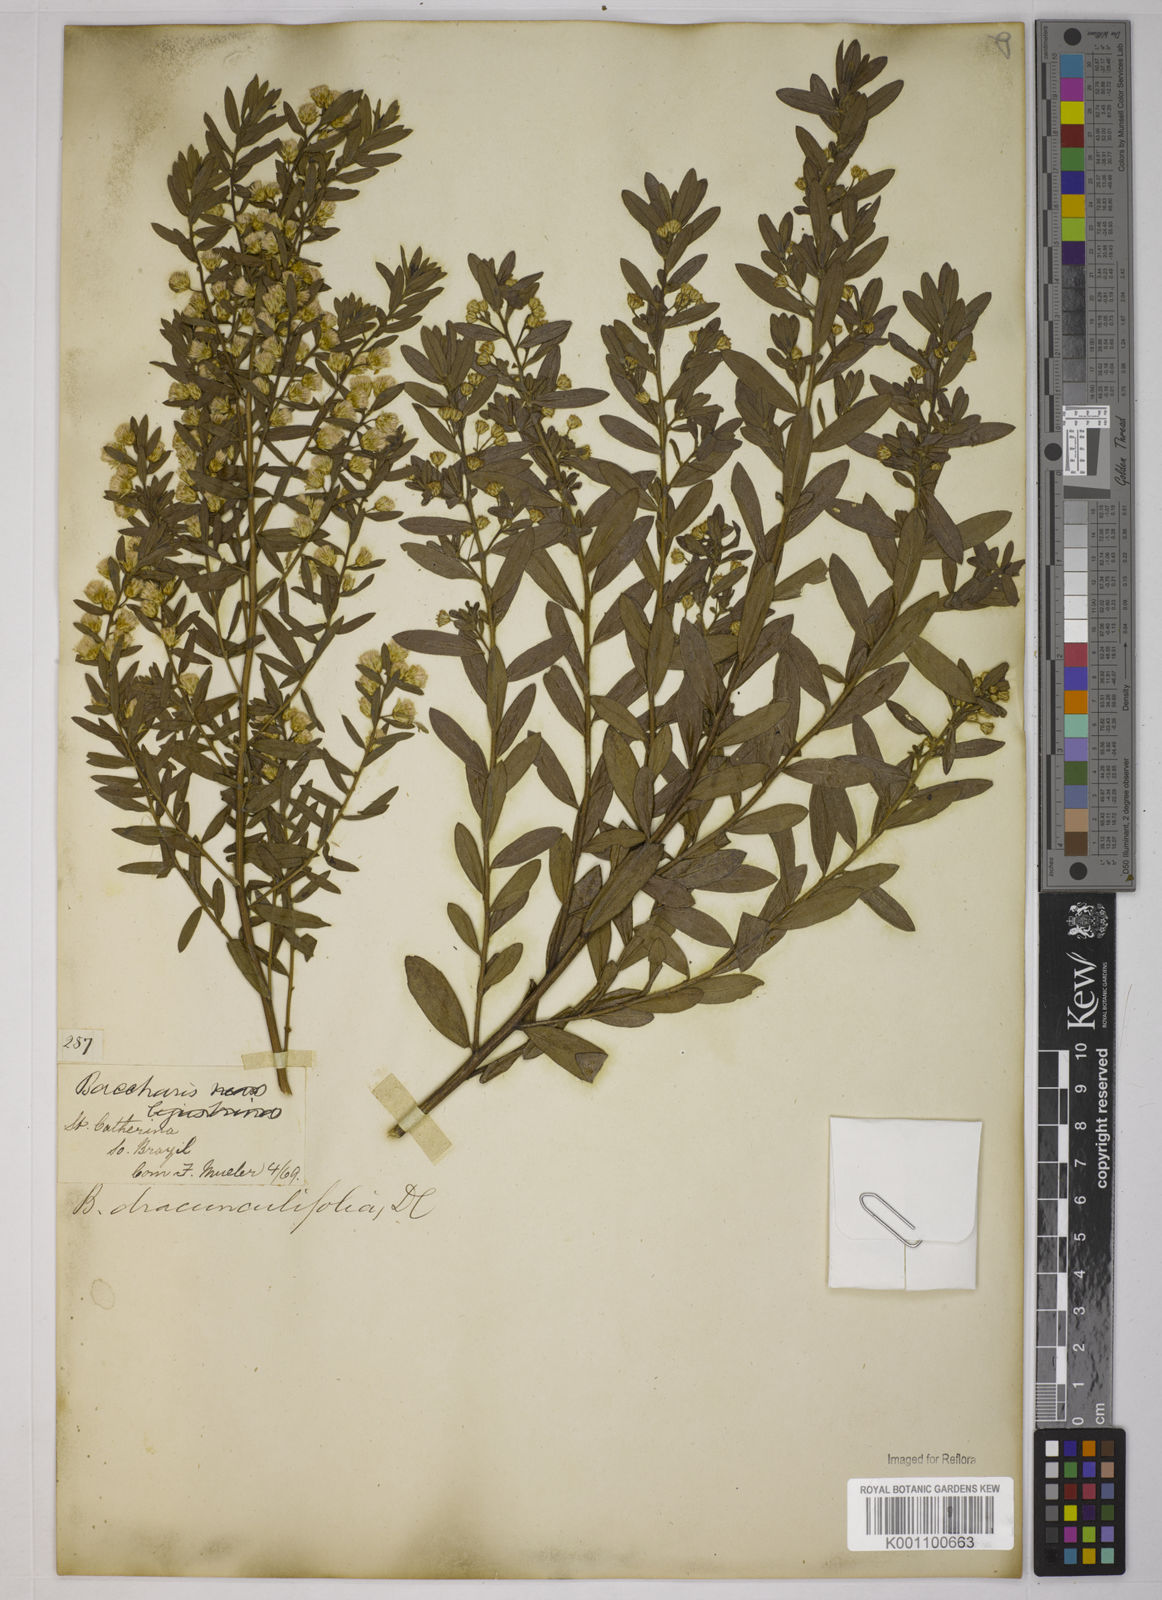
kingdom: Plantae
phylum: Tracheophyta
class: Magnoliopsida
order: Asterales
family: Asteraceae
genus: Baccharis
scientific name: Baccharis dracunculifolia
